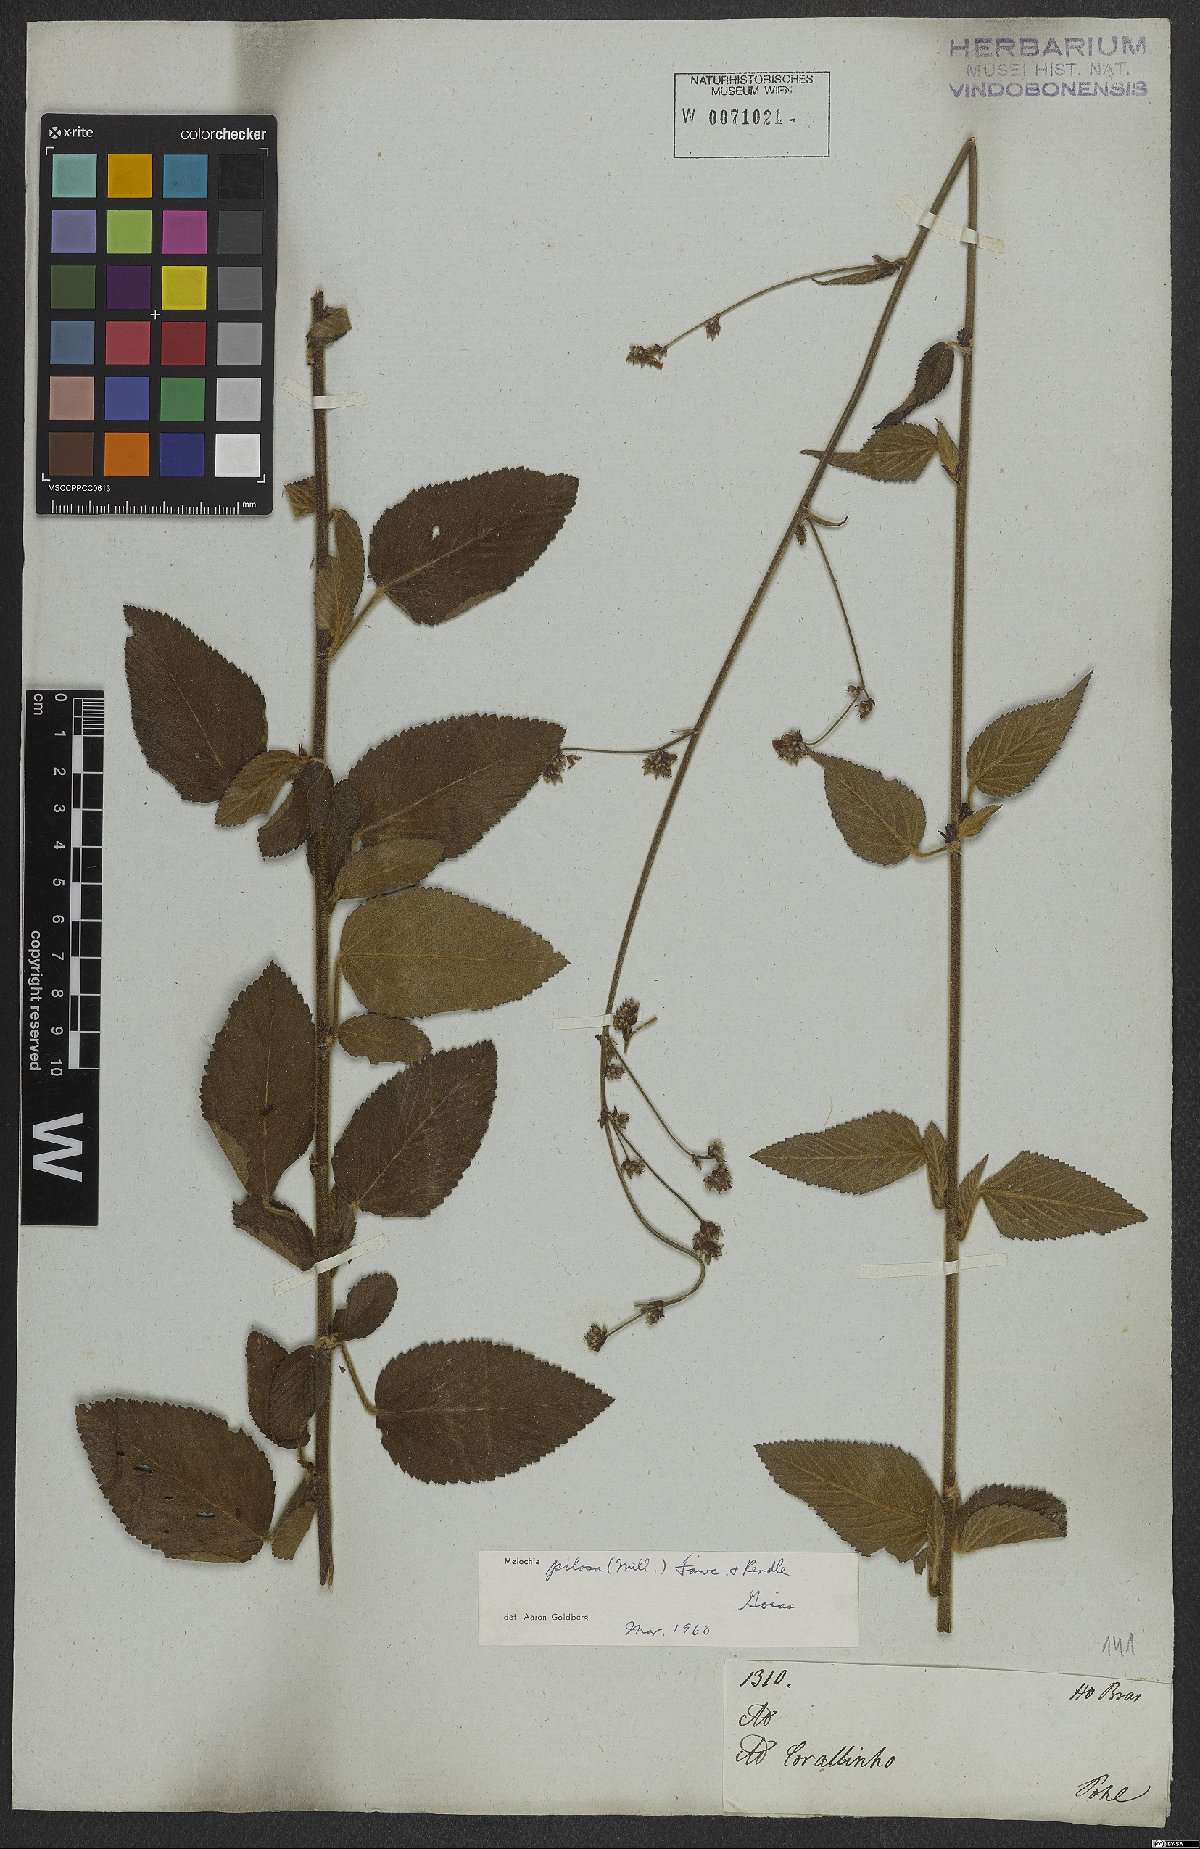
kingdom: Plantae
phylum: Tracheophyta
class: Magnoliopsida
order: Malvales
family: Malvaceae
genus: Melochia
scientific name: Melochia pilosa
